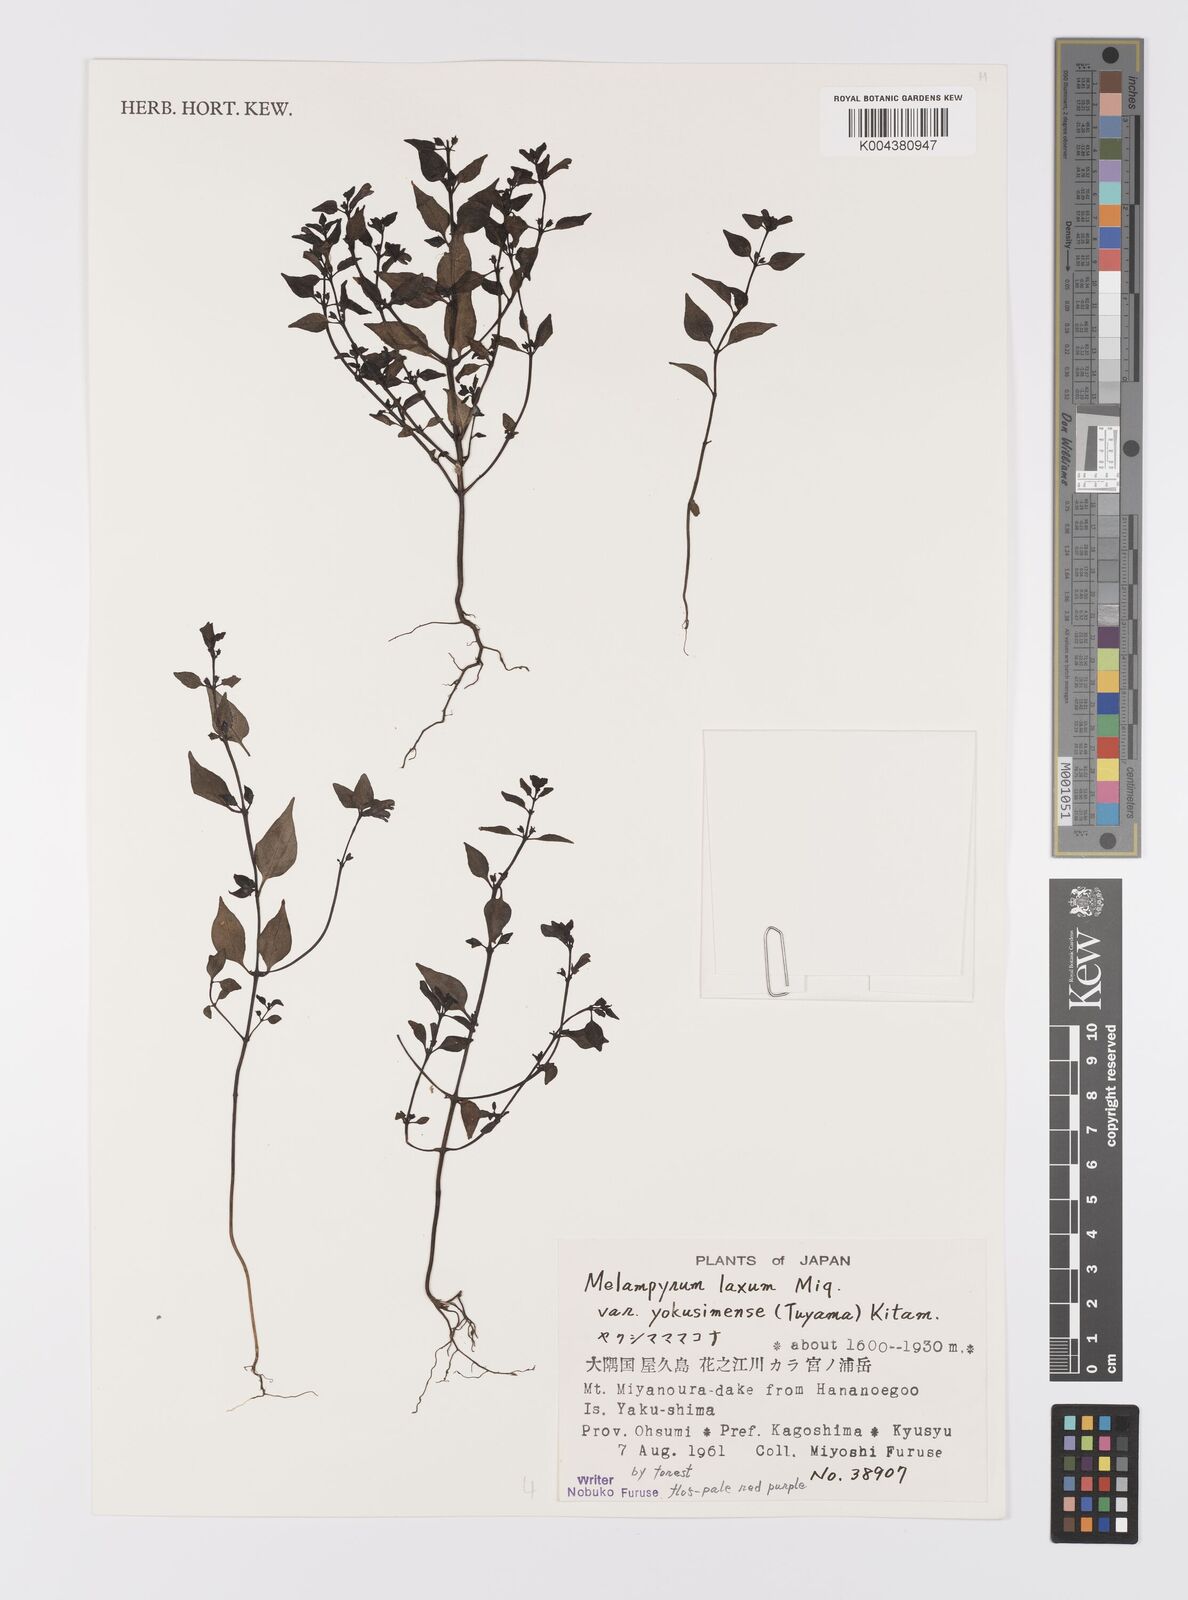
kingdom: Plantae
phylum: Tracheophyta
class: Magnoliopsida
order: Lamiales
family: Orobanchaceae
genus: Melampyrum
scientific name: Melampyrum laxum
